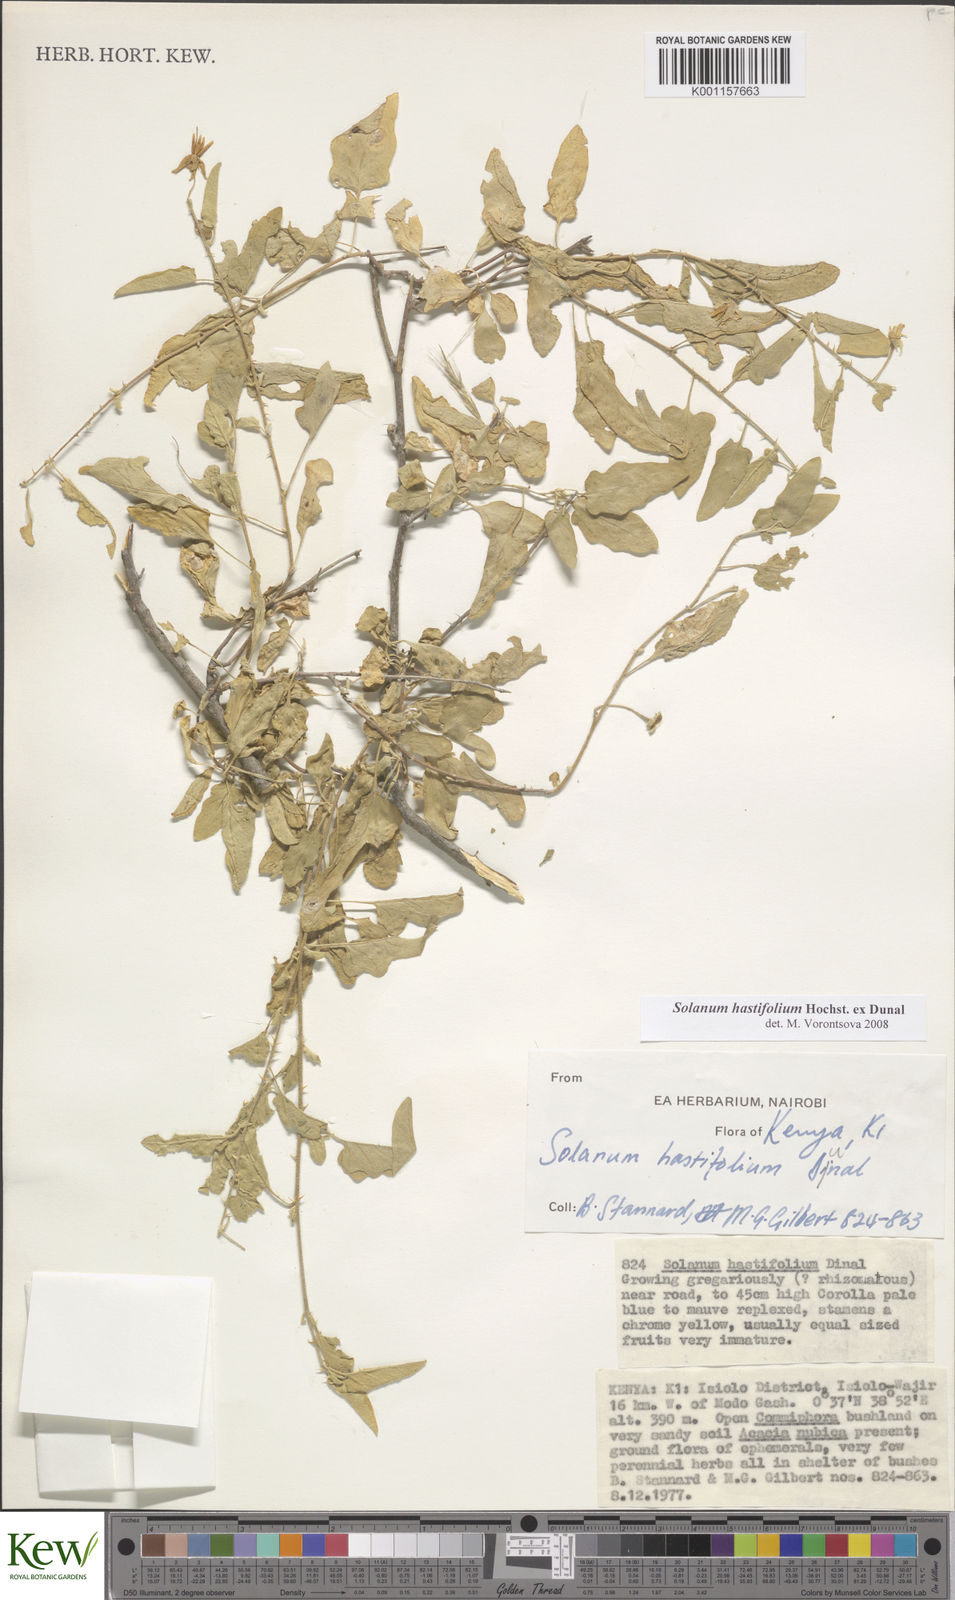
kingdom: Plantae
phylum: Tracheophyta
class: Magnoliopsida
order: Solanales
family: Solanaceae
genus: Solanum
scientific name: Solanum hastifolium
